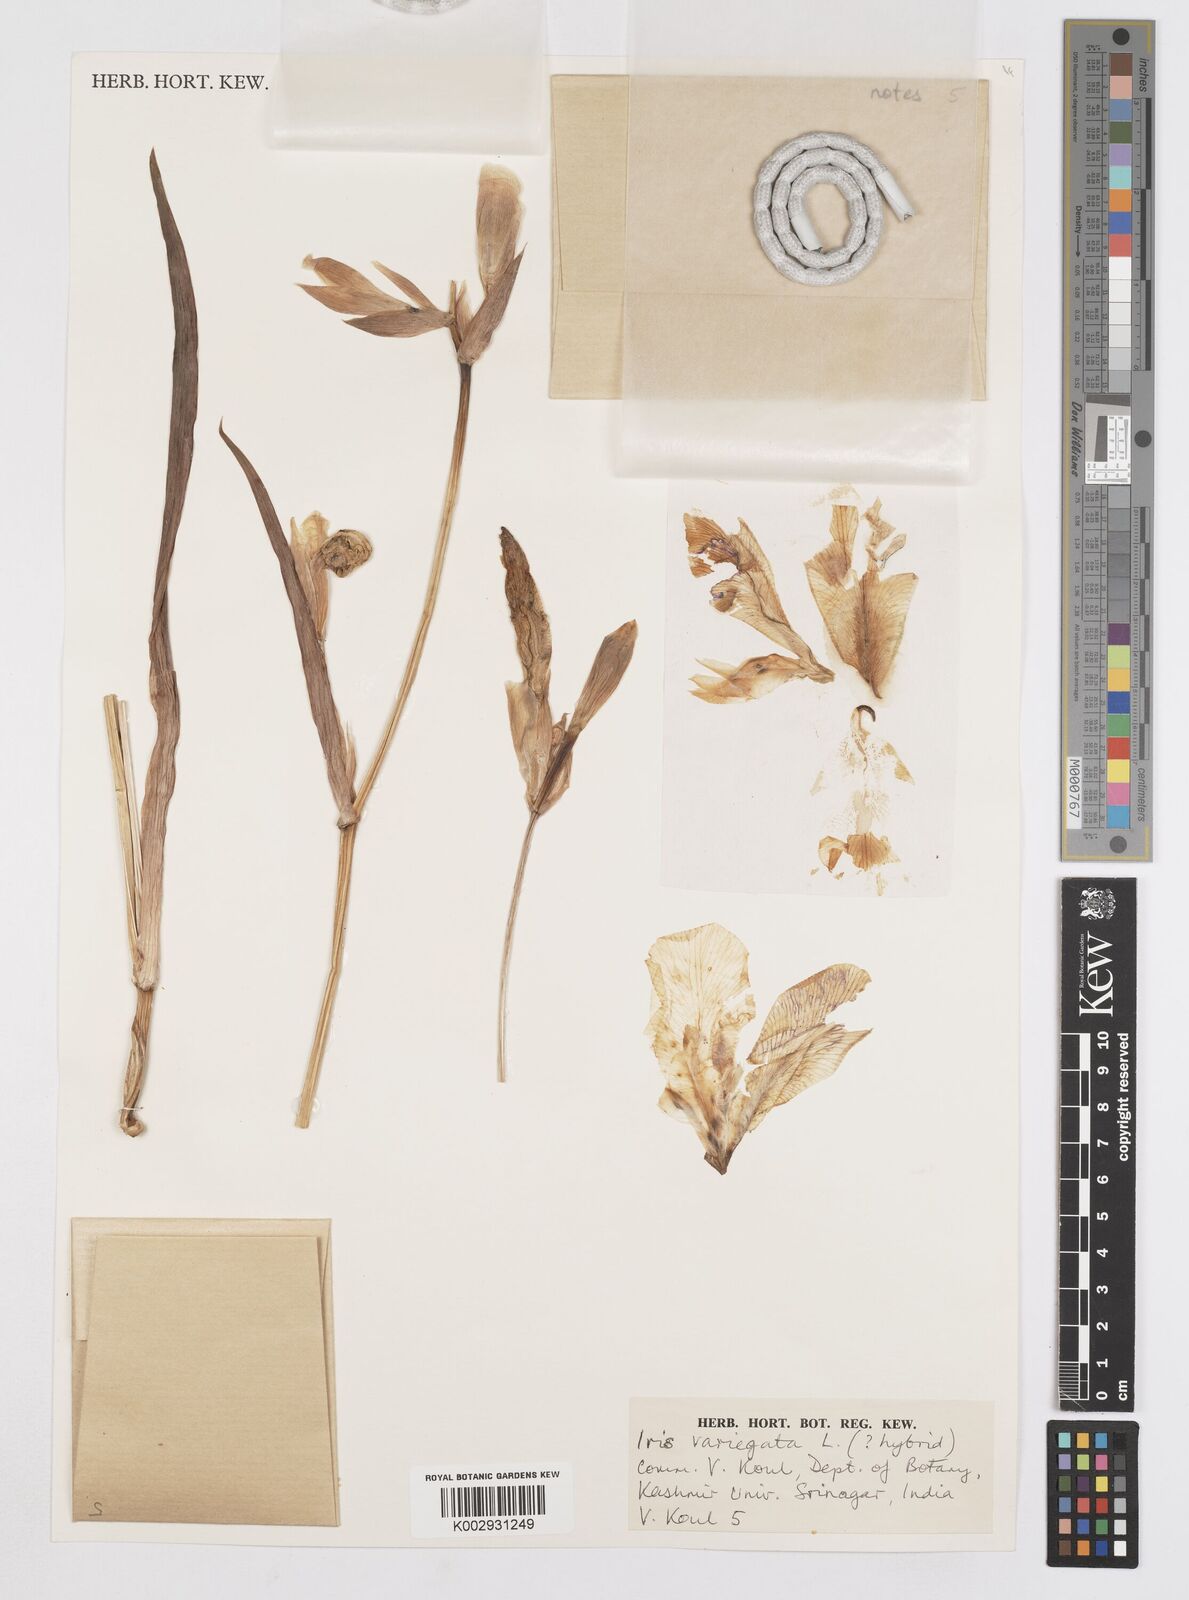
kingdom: Plantae
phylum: Tracheophyta
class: Liliopsida
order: Asparagales
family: Iridaceae
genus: Iris
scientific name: Iris variegata
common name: Hungarian iris
